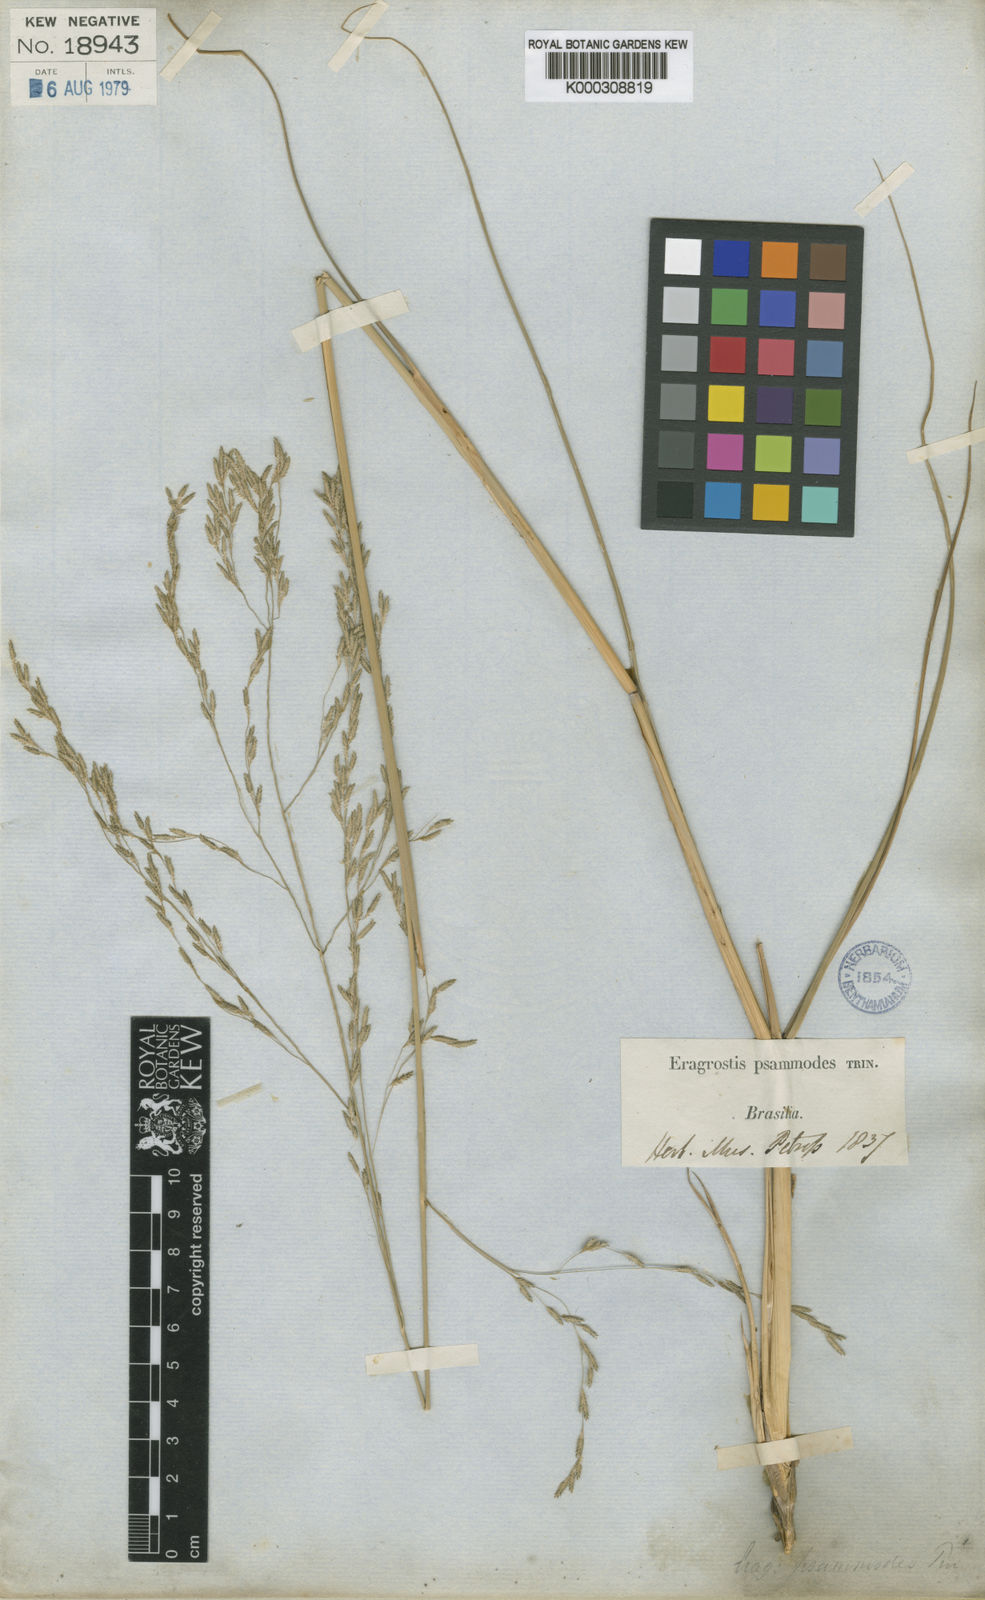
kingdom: Plantae
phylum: Tracheophyta
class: Liliopsida
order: Poales
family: Poaceae
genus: Eragrostis
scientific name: Eragrostis bahiensis
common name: Bahia lovegrass
